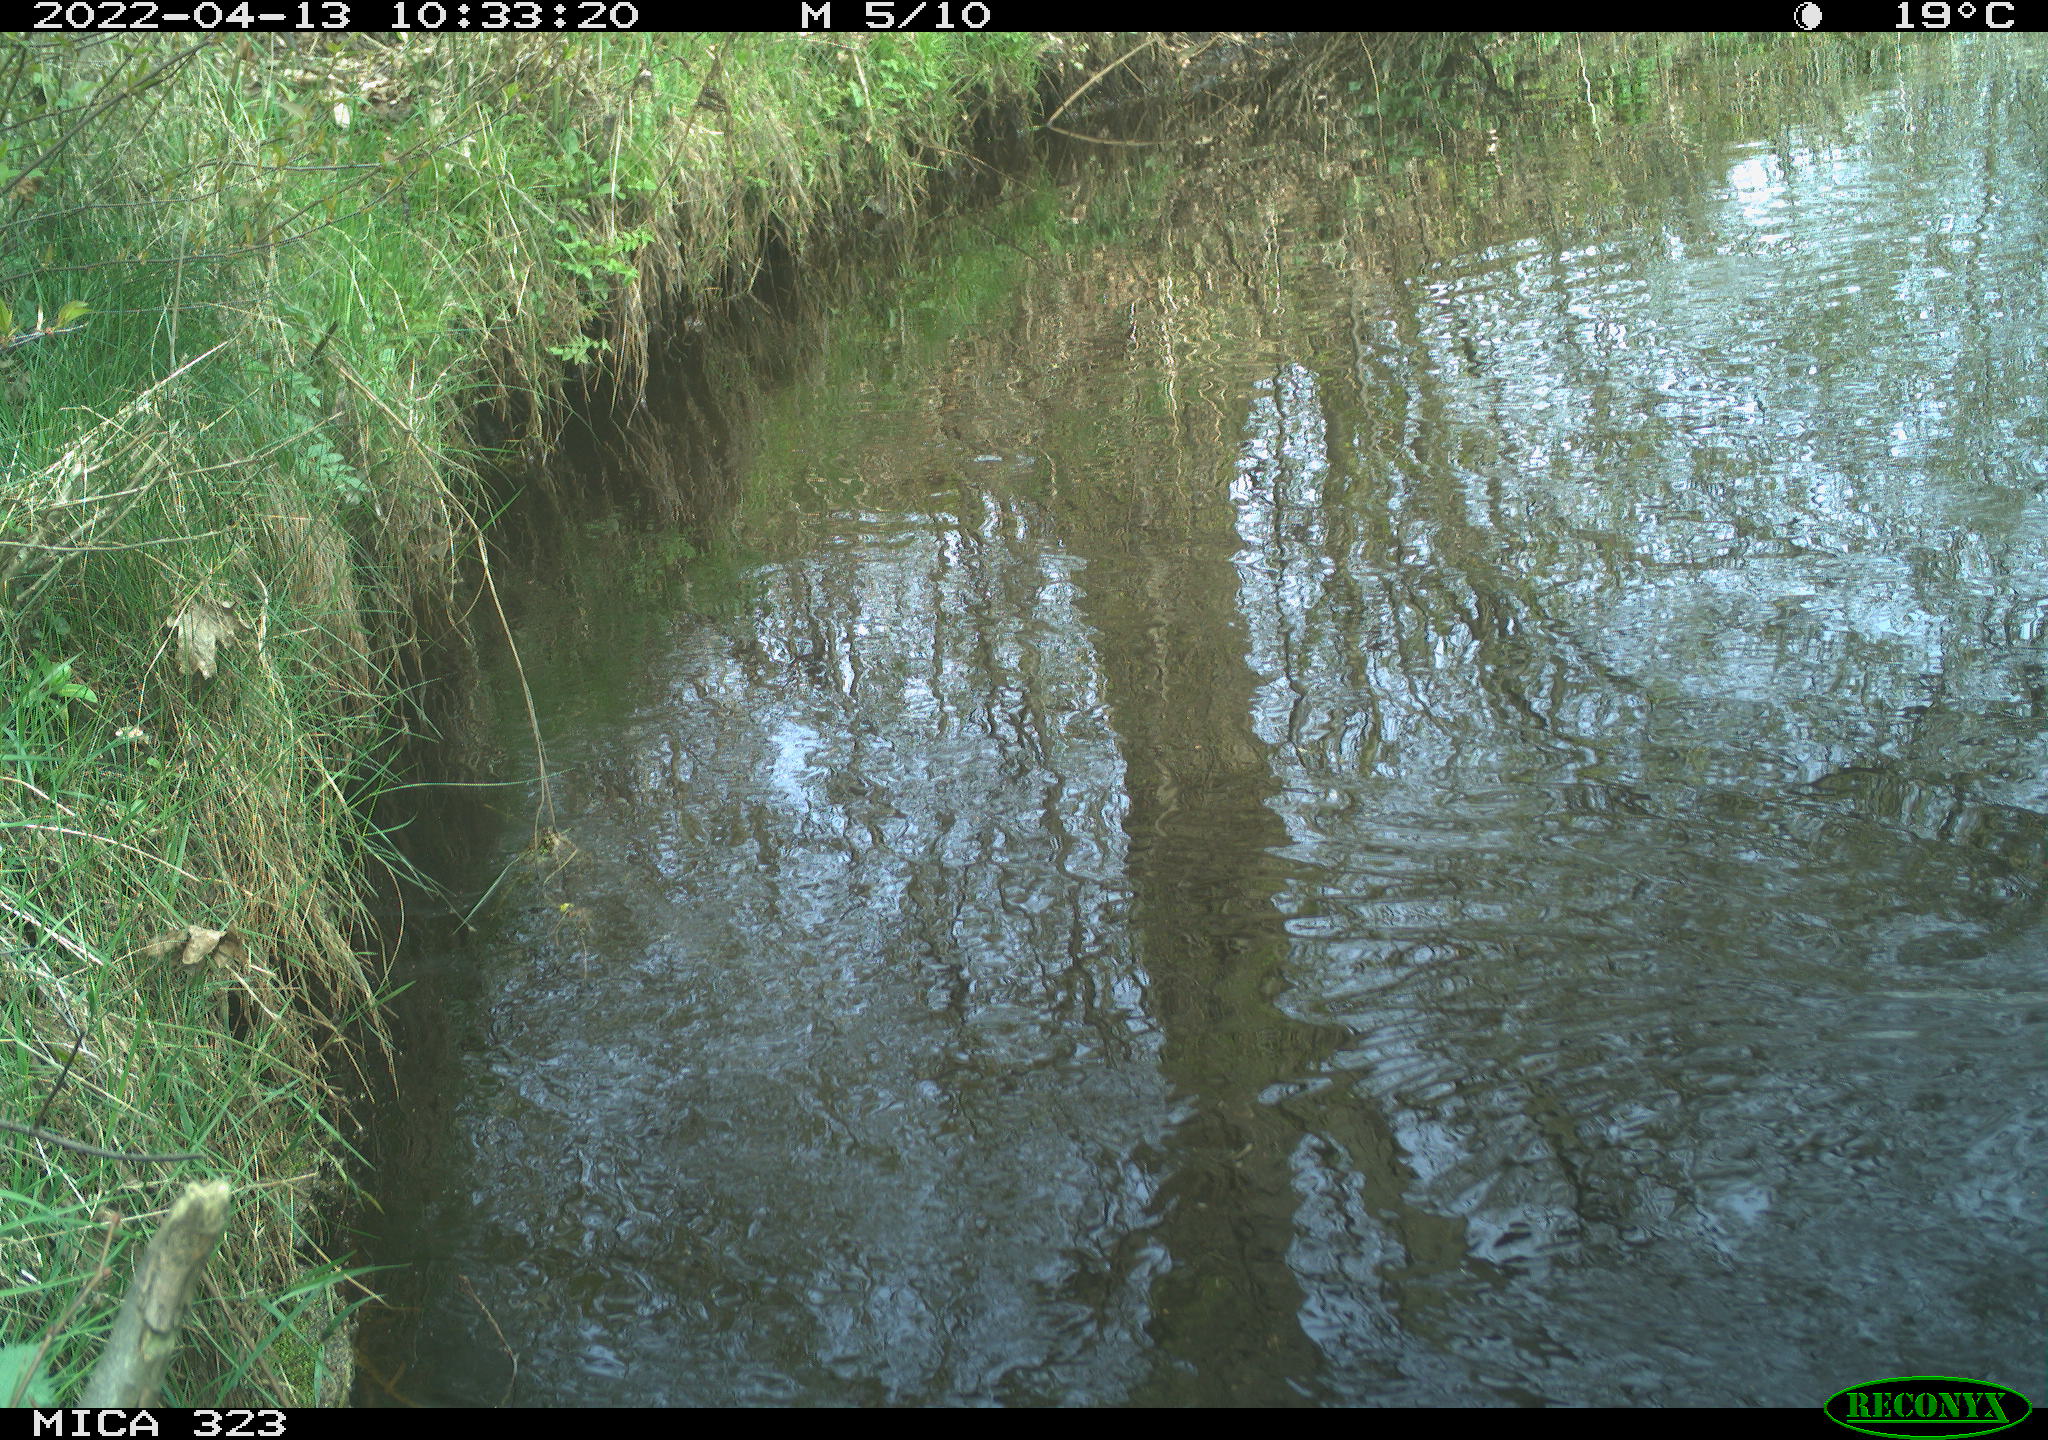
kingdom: Animalia
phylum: Chordata
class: Aves
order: Gruiformes
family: Rallidae
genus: Gallinula
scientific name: Gallinula chloropus
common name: Common moorhen
